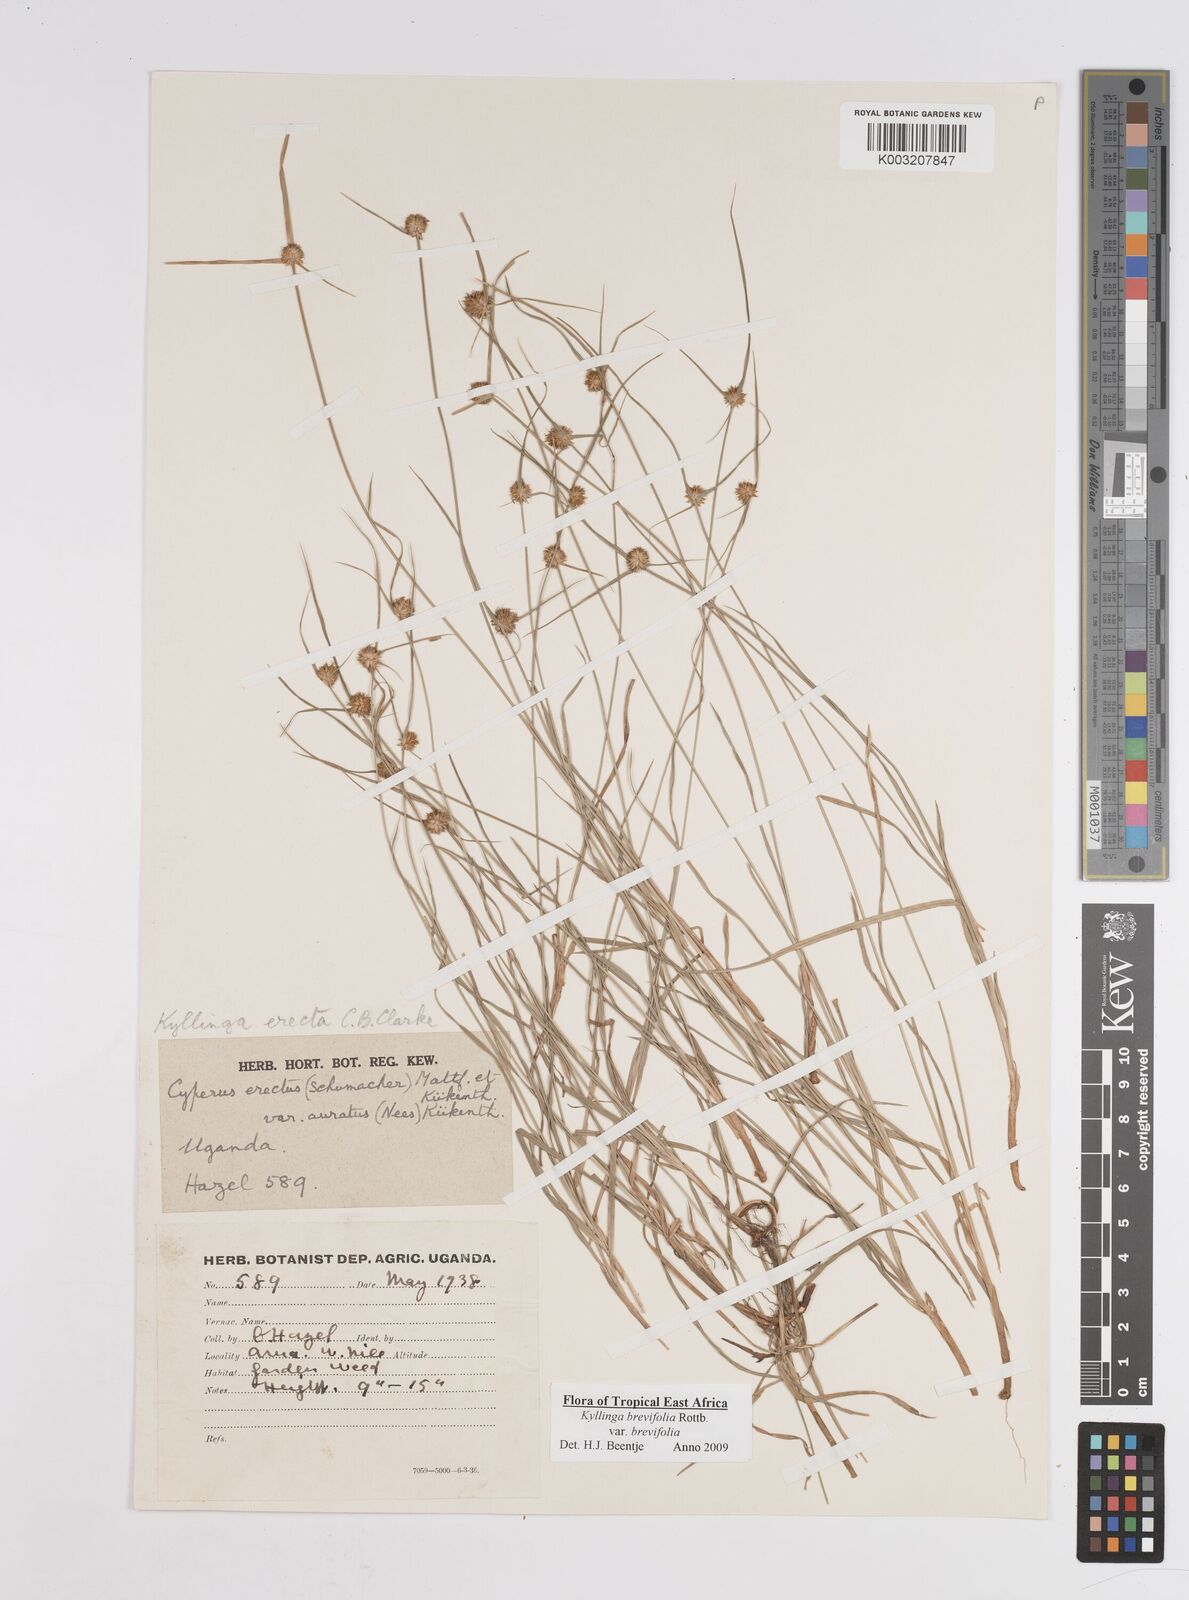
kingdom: Plantae
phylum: Tracheophyta
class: Liliopsida
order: Poales
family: Cyperaceae
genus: Cyperus
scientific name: Cyperus erectus
